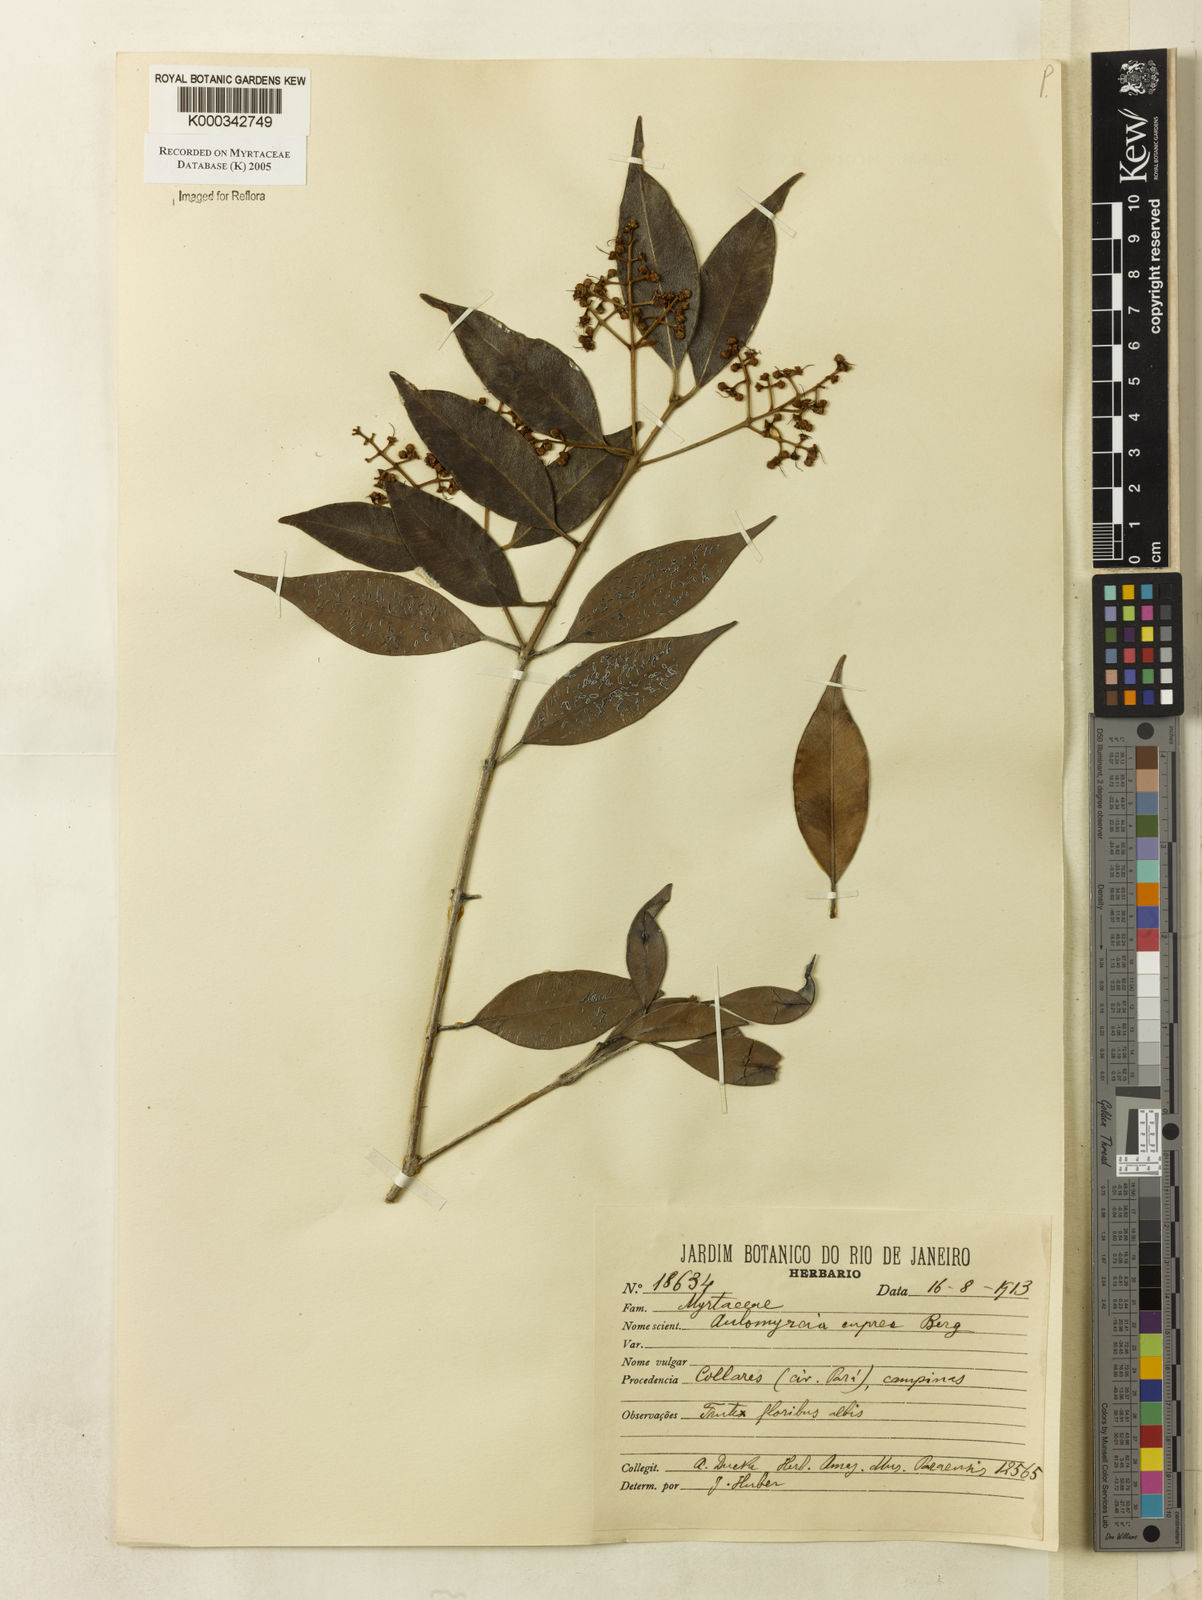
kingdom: Plantae
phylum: Tracheophyta
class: Magnoliopsida
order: Myrtales
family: Myrtaceae
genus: Myrcia
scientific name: Myrcia cuprea
